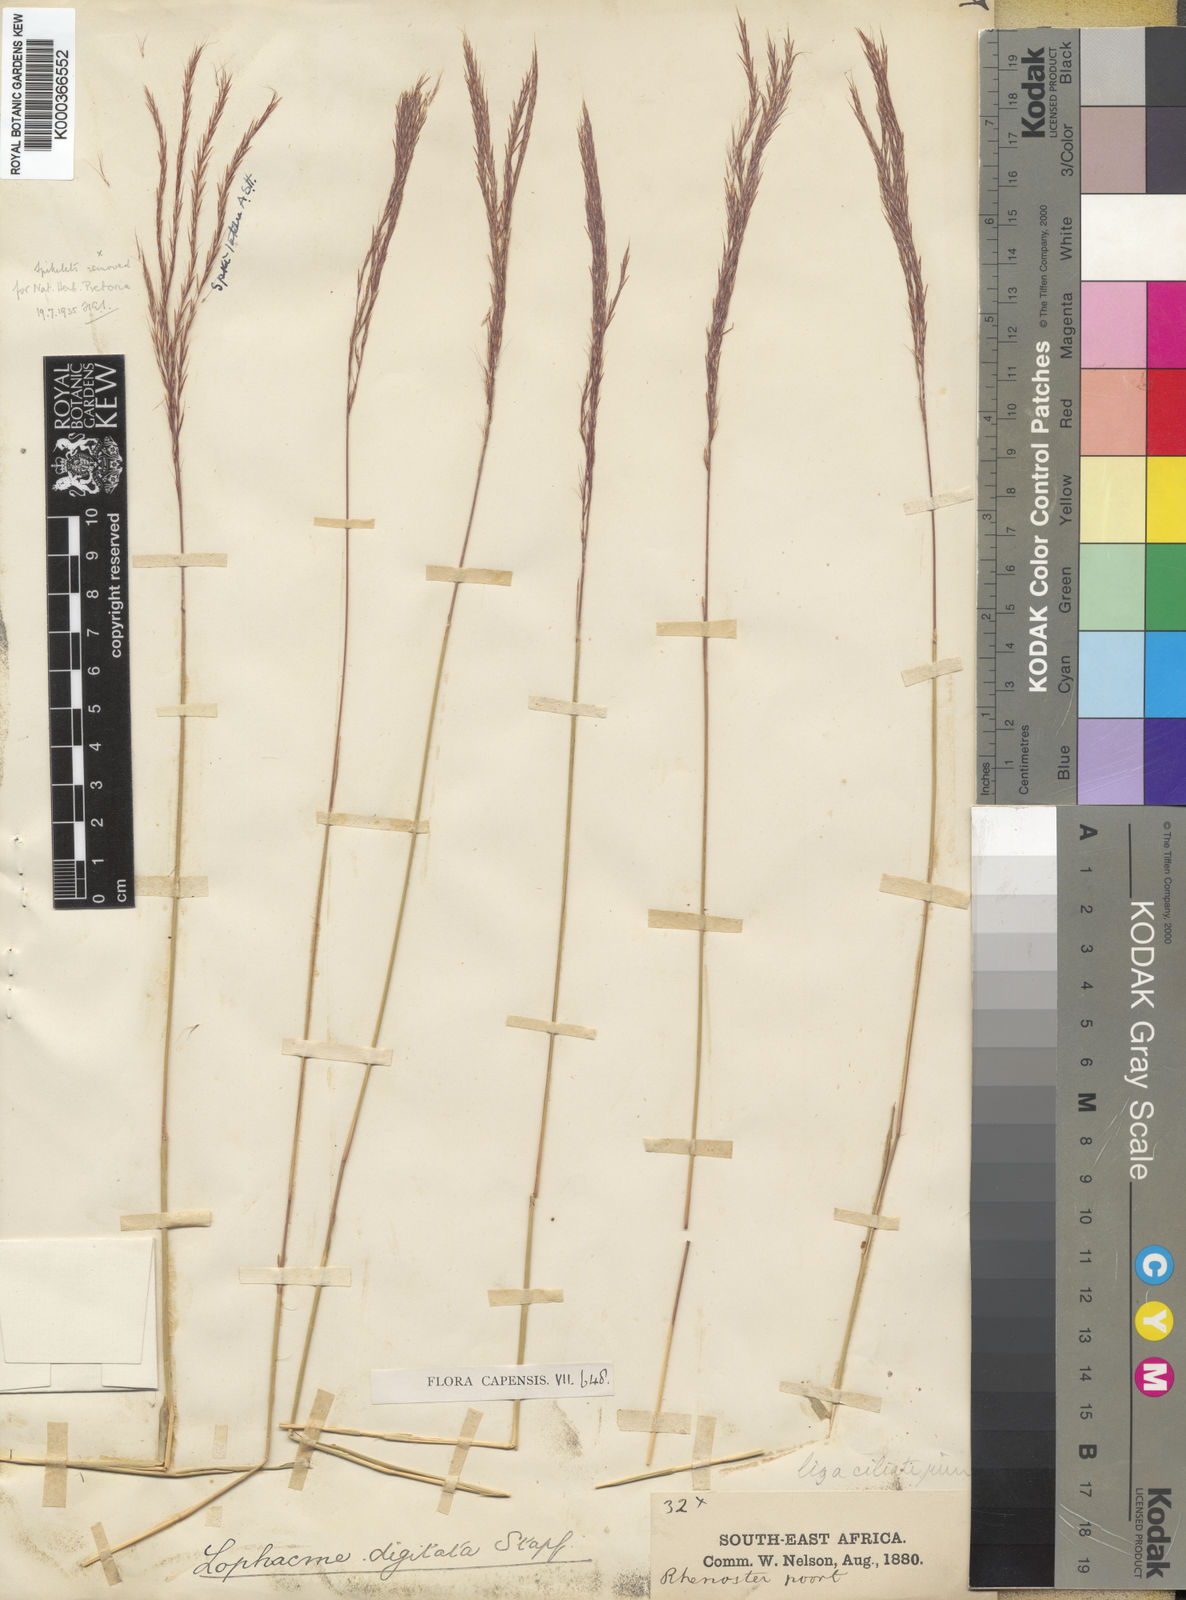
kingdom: Plantae
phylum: Tracheophyta
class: Liliopsida
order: Poales
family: Poaceae
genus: Lophacme
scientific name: Lophacme digitata
